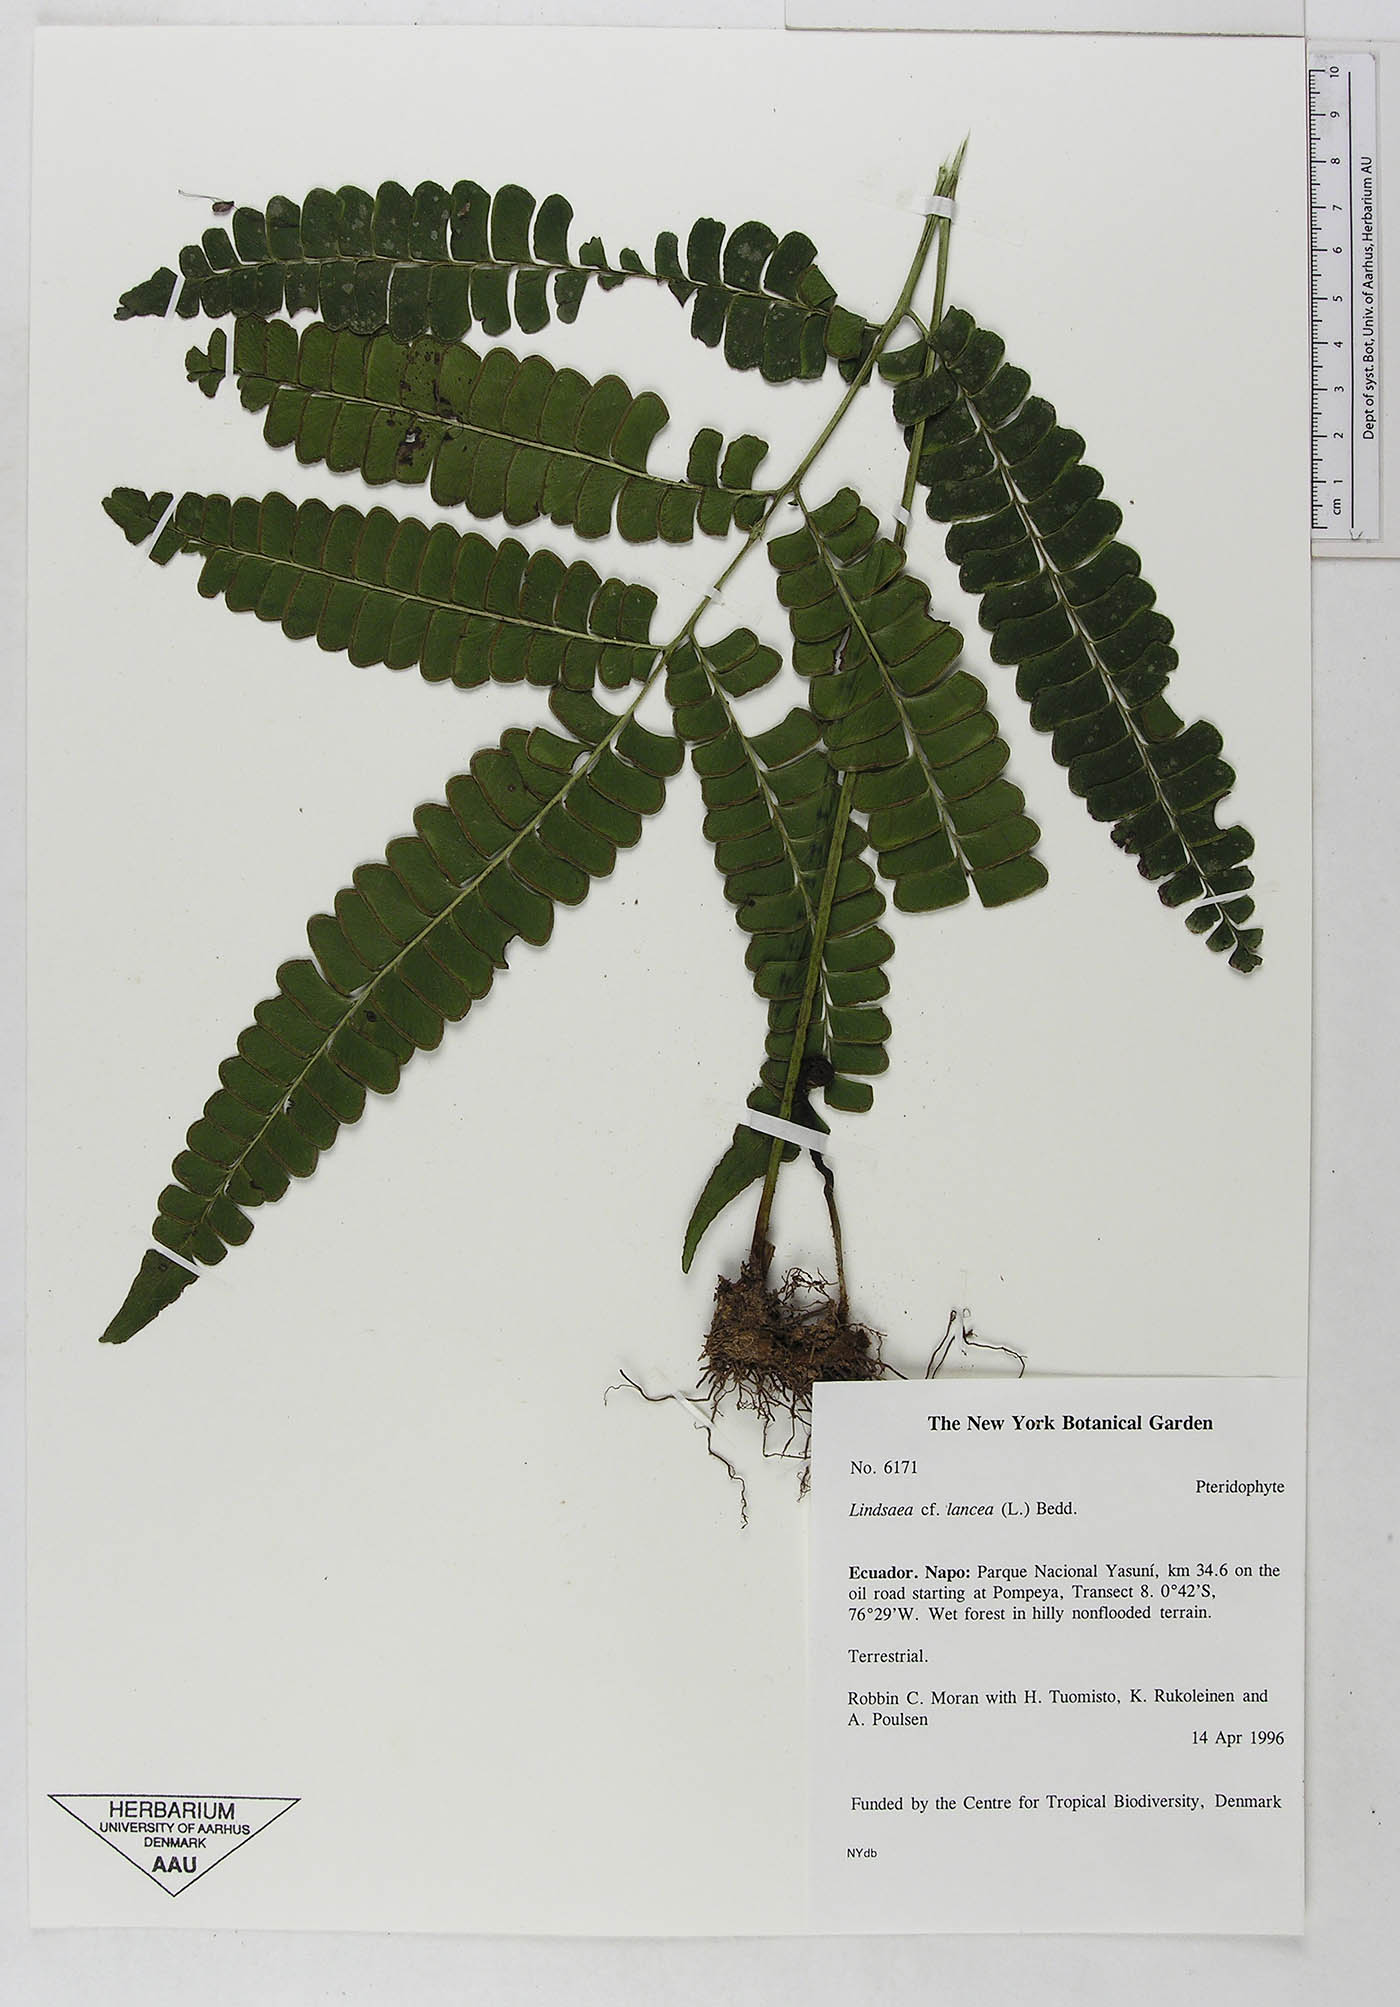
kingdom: Plantae
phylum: Tracheophyta
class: Polypodiopsida
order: Polypodiales
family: Dennstaedtiaceae
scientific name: Dennstaedtiaceae
